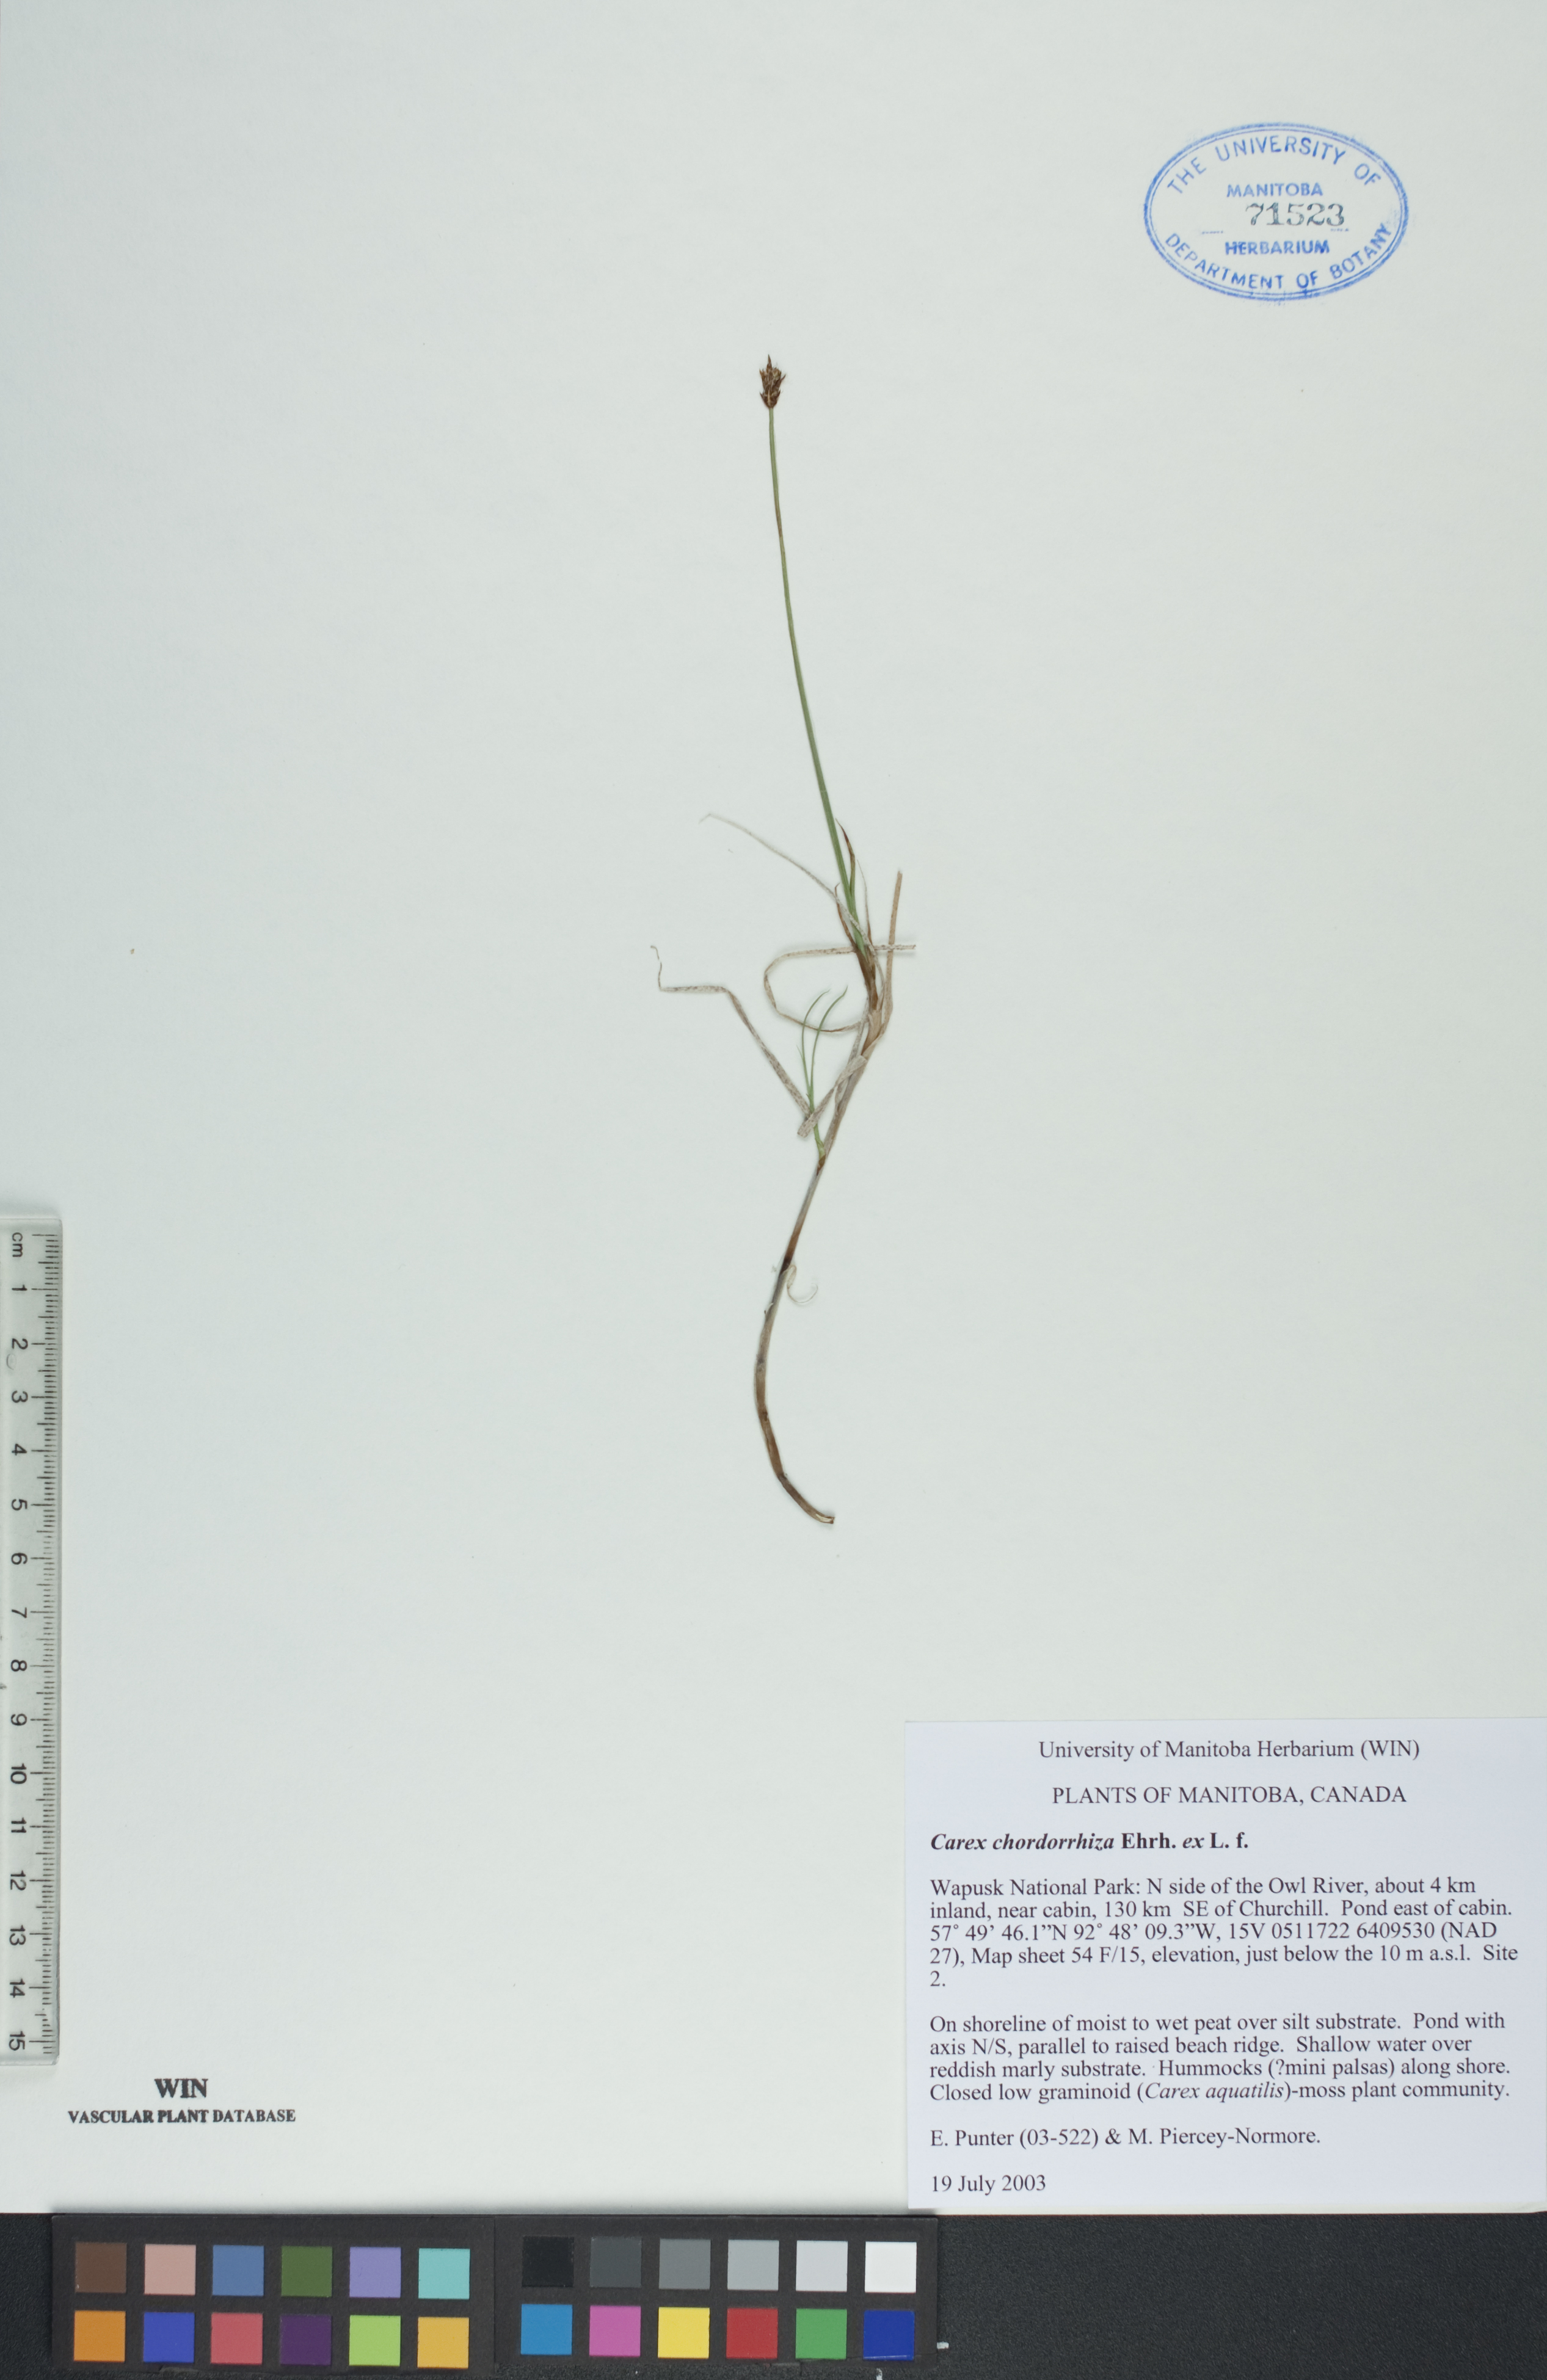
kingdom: Plantae
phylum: Tracheophyta
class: Liliopsida
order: Poales
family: Cyperaceae
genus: Carex
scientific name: Carex chordorrhiza
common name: String sedge
